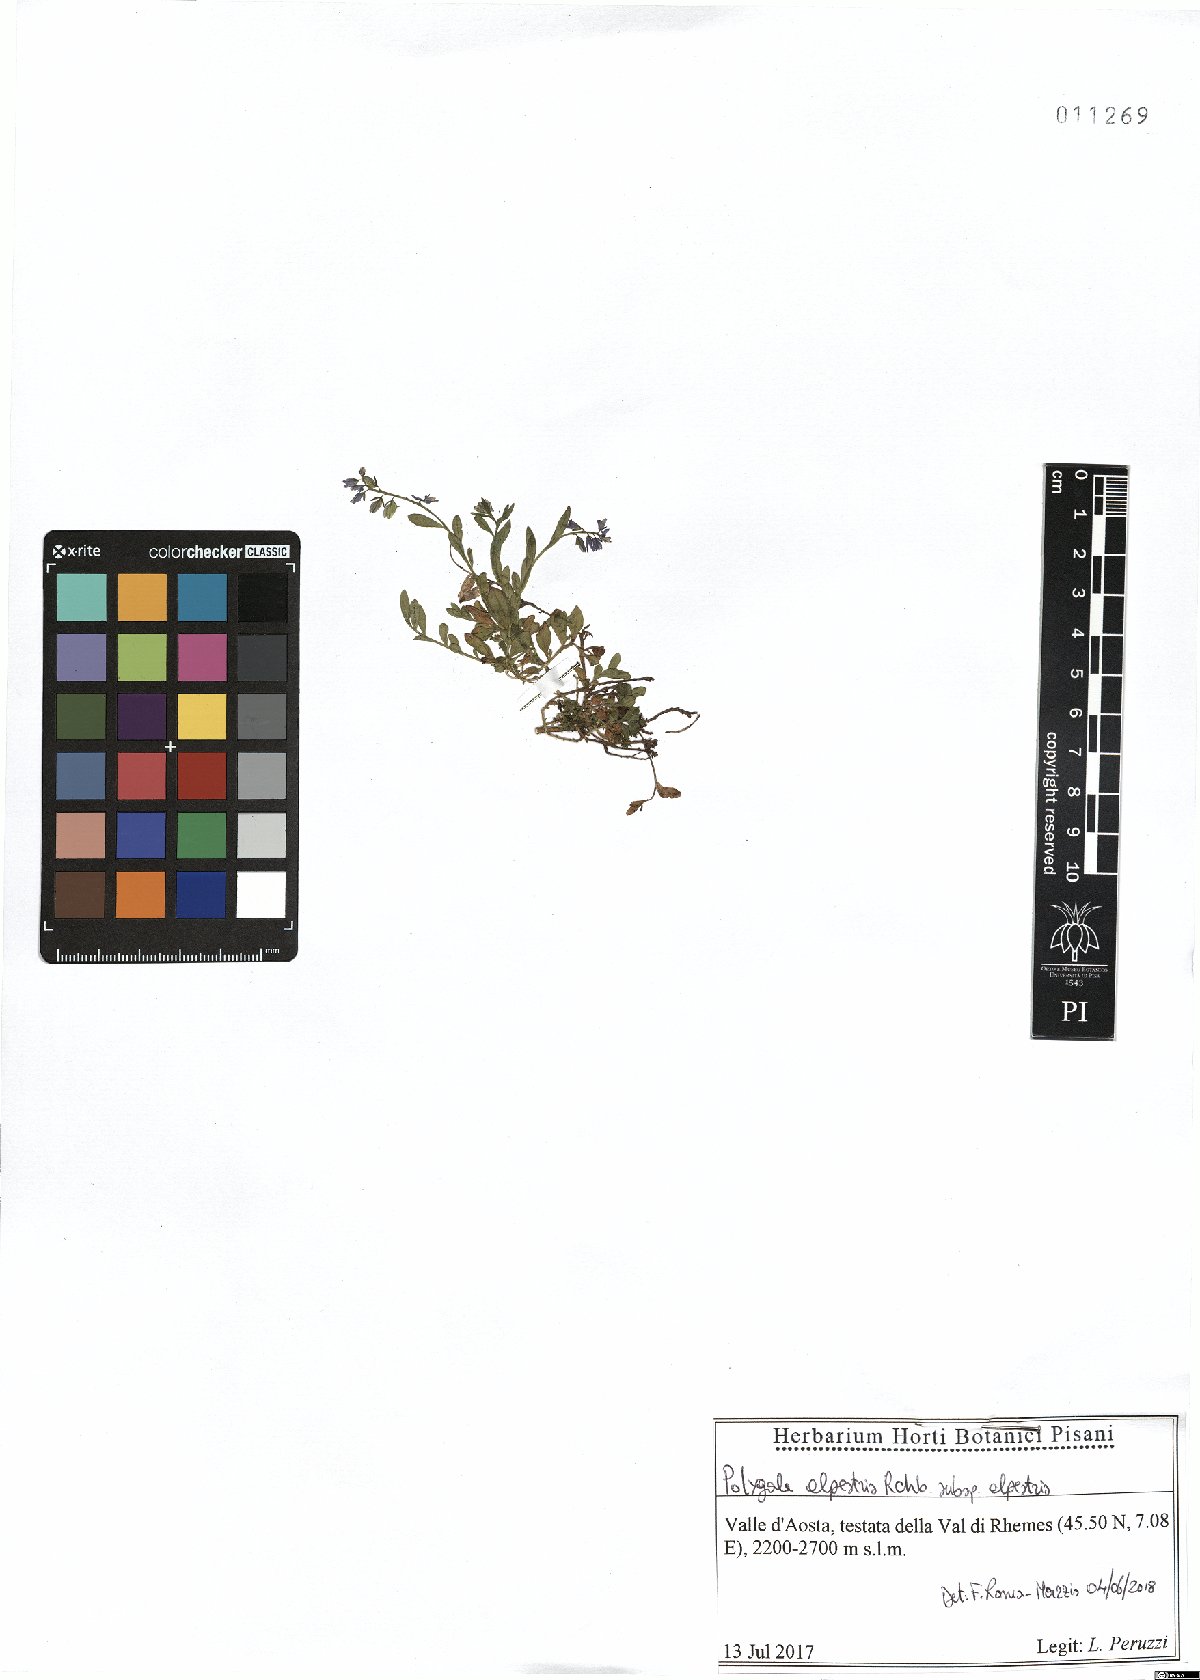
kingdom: Plantae
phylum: Tracheophyta
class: Magnoliopsida
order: Fabales
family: Polygalaceae
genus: Polygala
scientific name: Polygala alpestris
